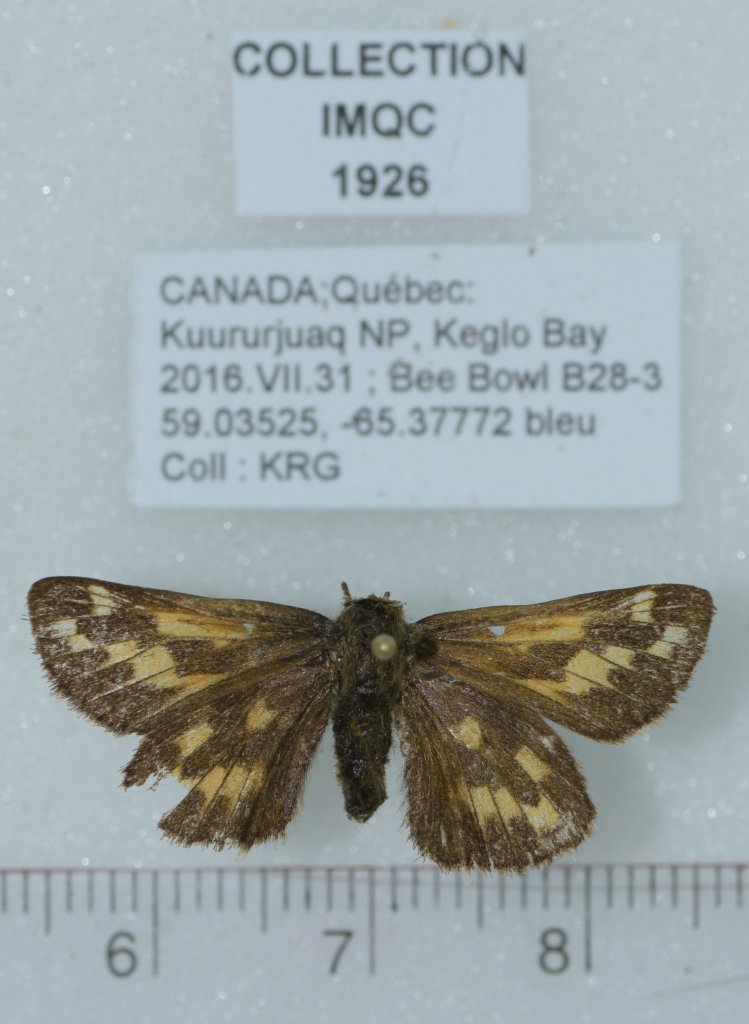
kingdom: Animalia
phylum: Arthropoda
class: Insecta
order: Lepidoptera
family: Hesperiidae
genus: Hesperia
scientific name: Hesperia comma
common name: Common Branded Skipper
